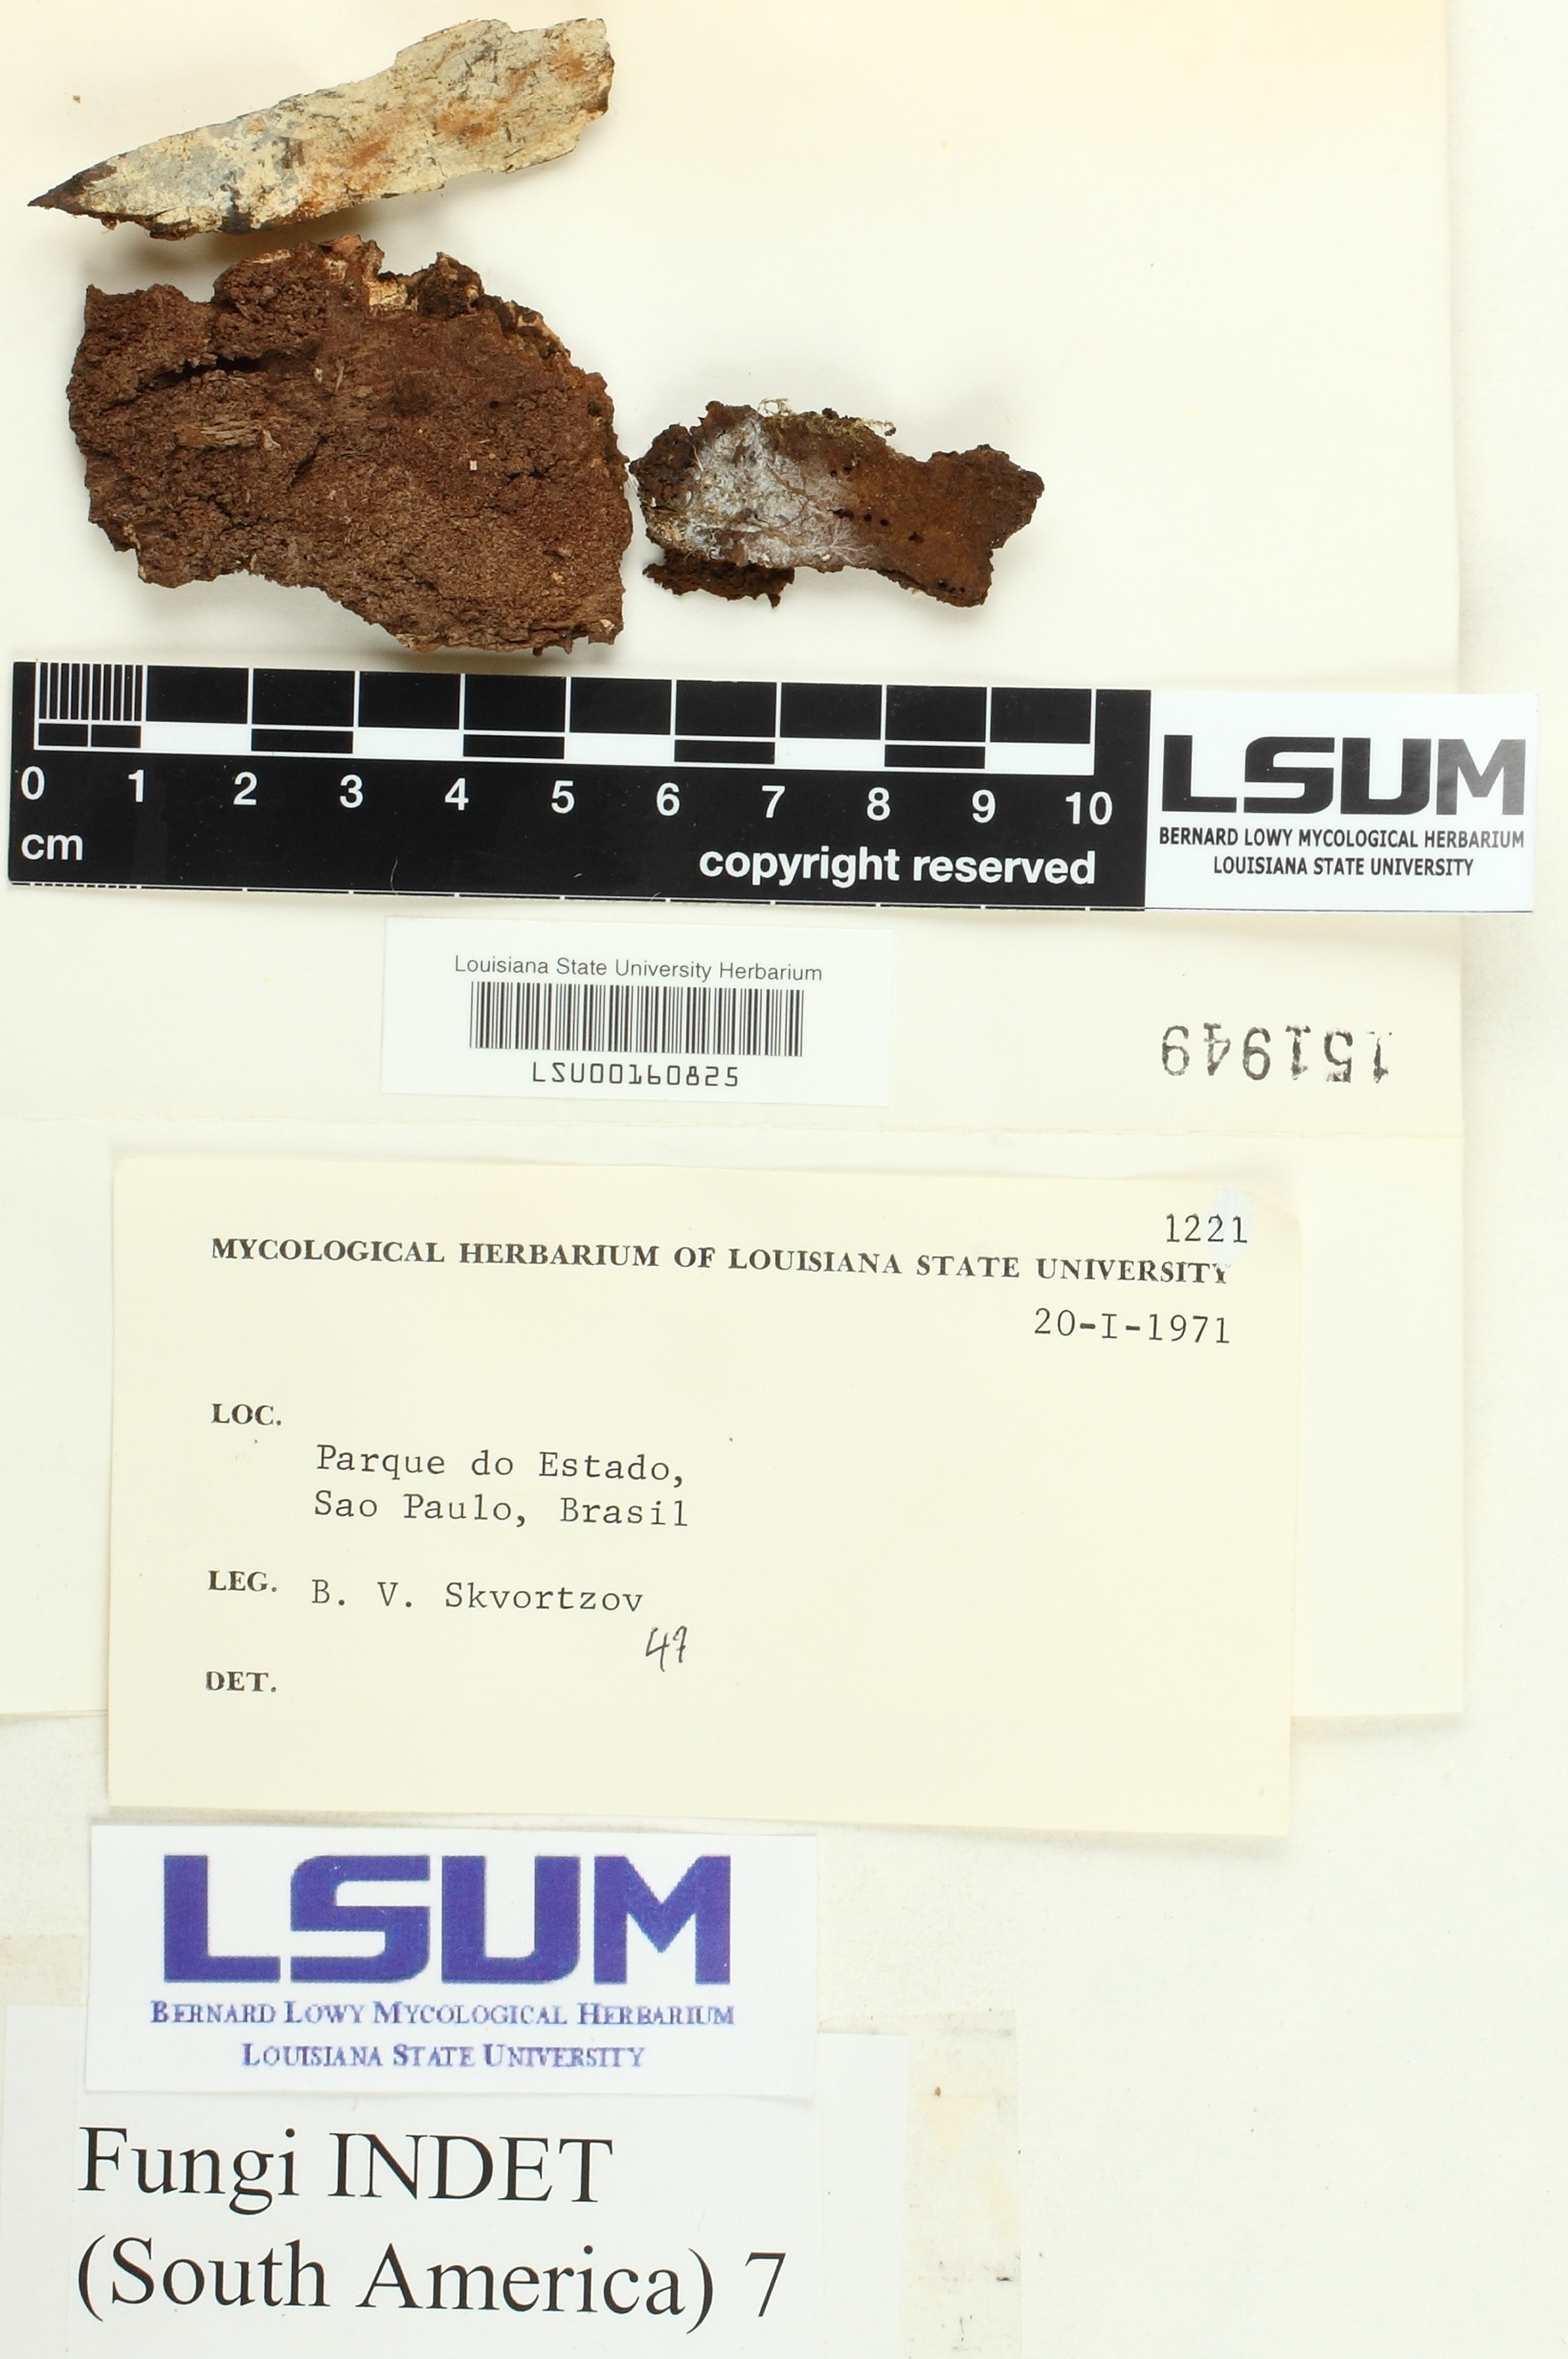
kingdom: Fungi
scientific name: Fungi
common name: Fungi
